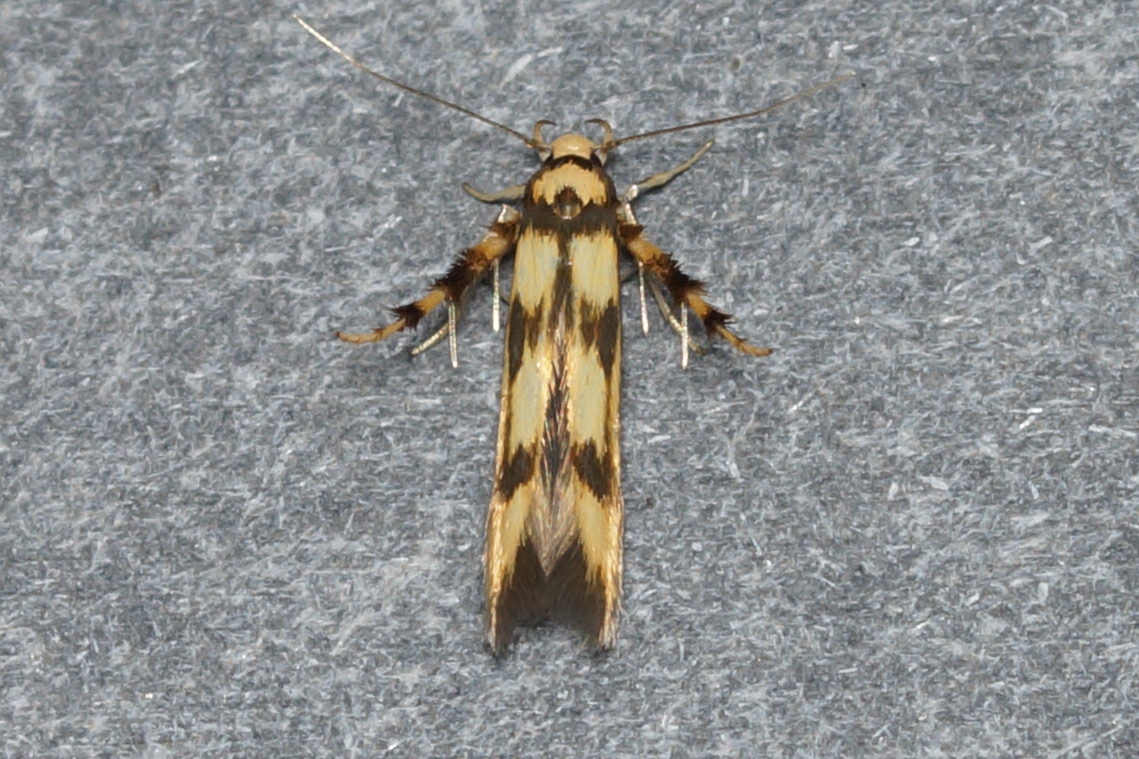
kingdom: Animalia
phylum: Arthropoda
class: Insecta
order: Lepidoptera
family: Stathmopodidae
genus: Stathmopoda
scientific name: Stathmopoda pedella
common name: Strittende ellemøl
